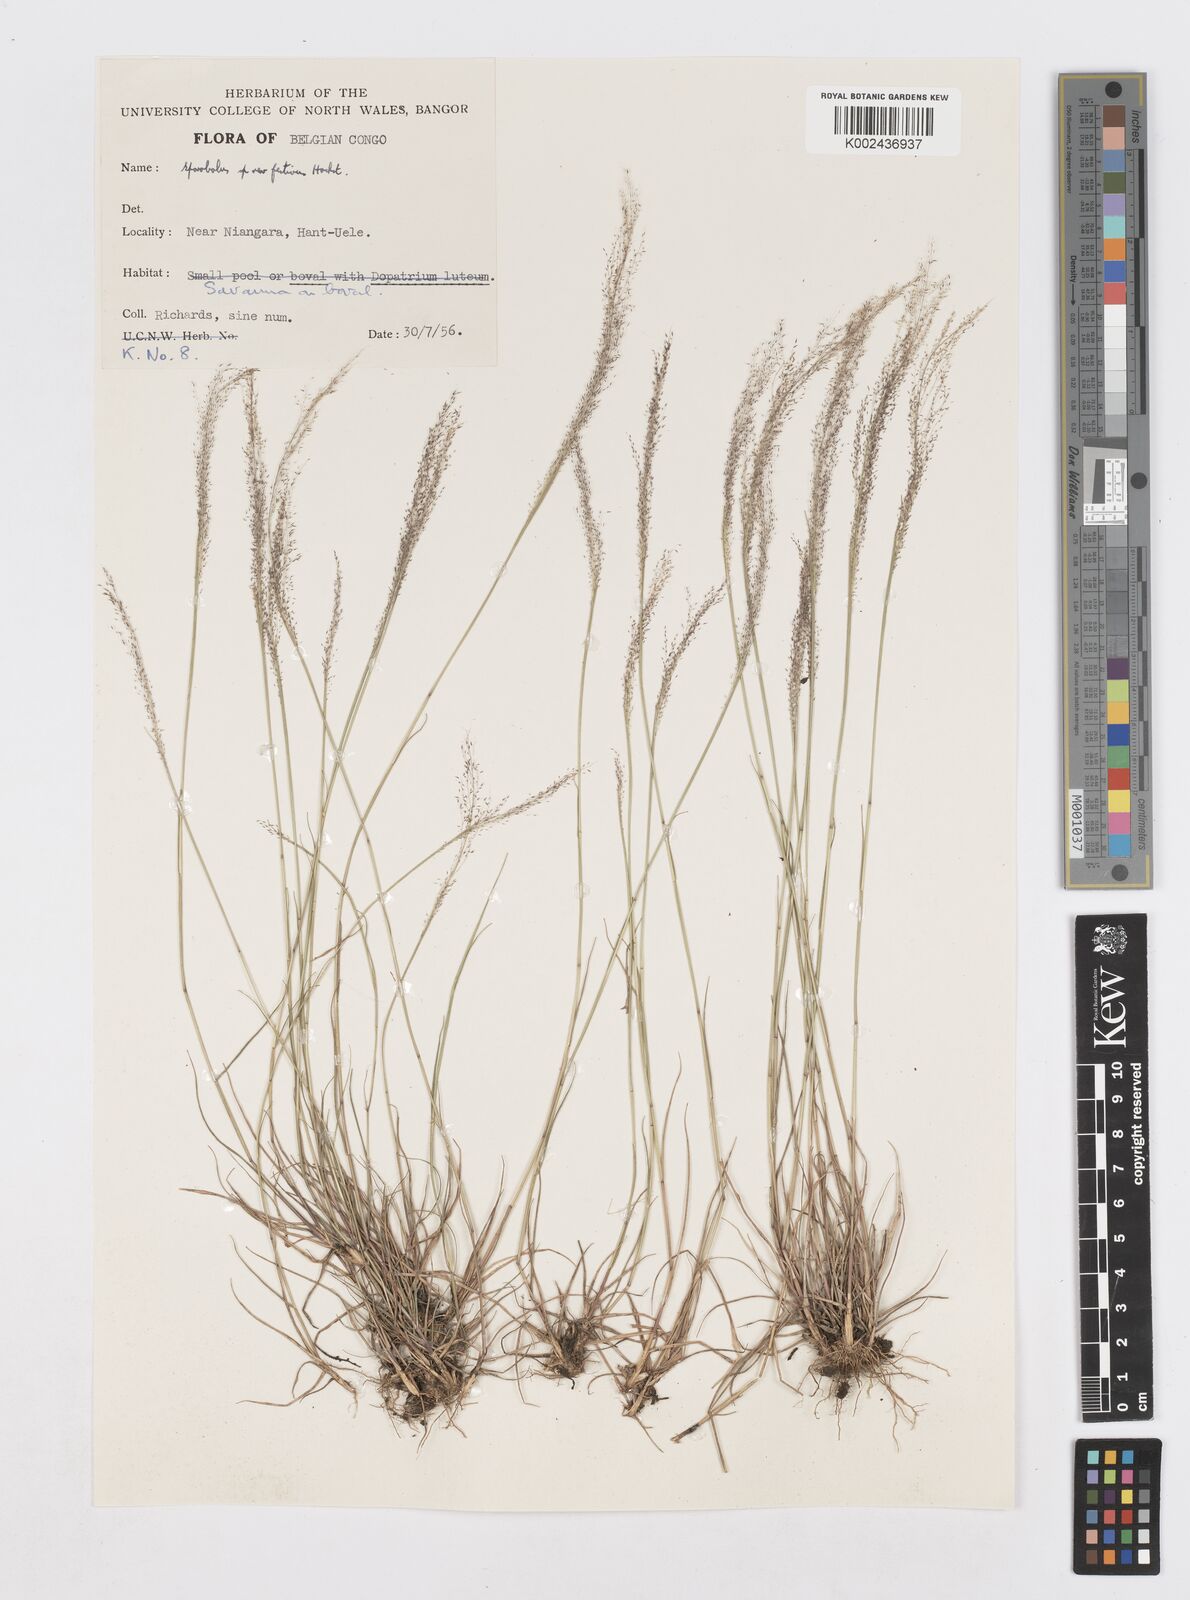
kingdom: Plantae
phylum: Tracheophyta
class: Liliopsida
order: Poales
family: Poaceae
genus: Sporobolus
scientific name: Sporobolus myrianthus
